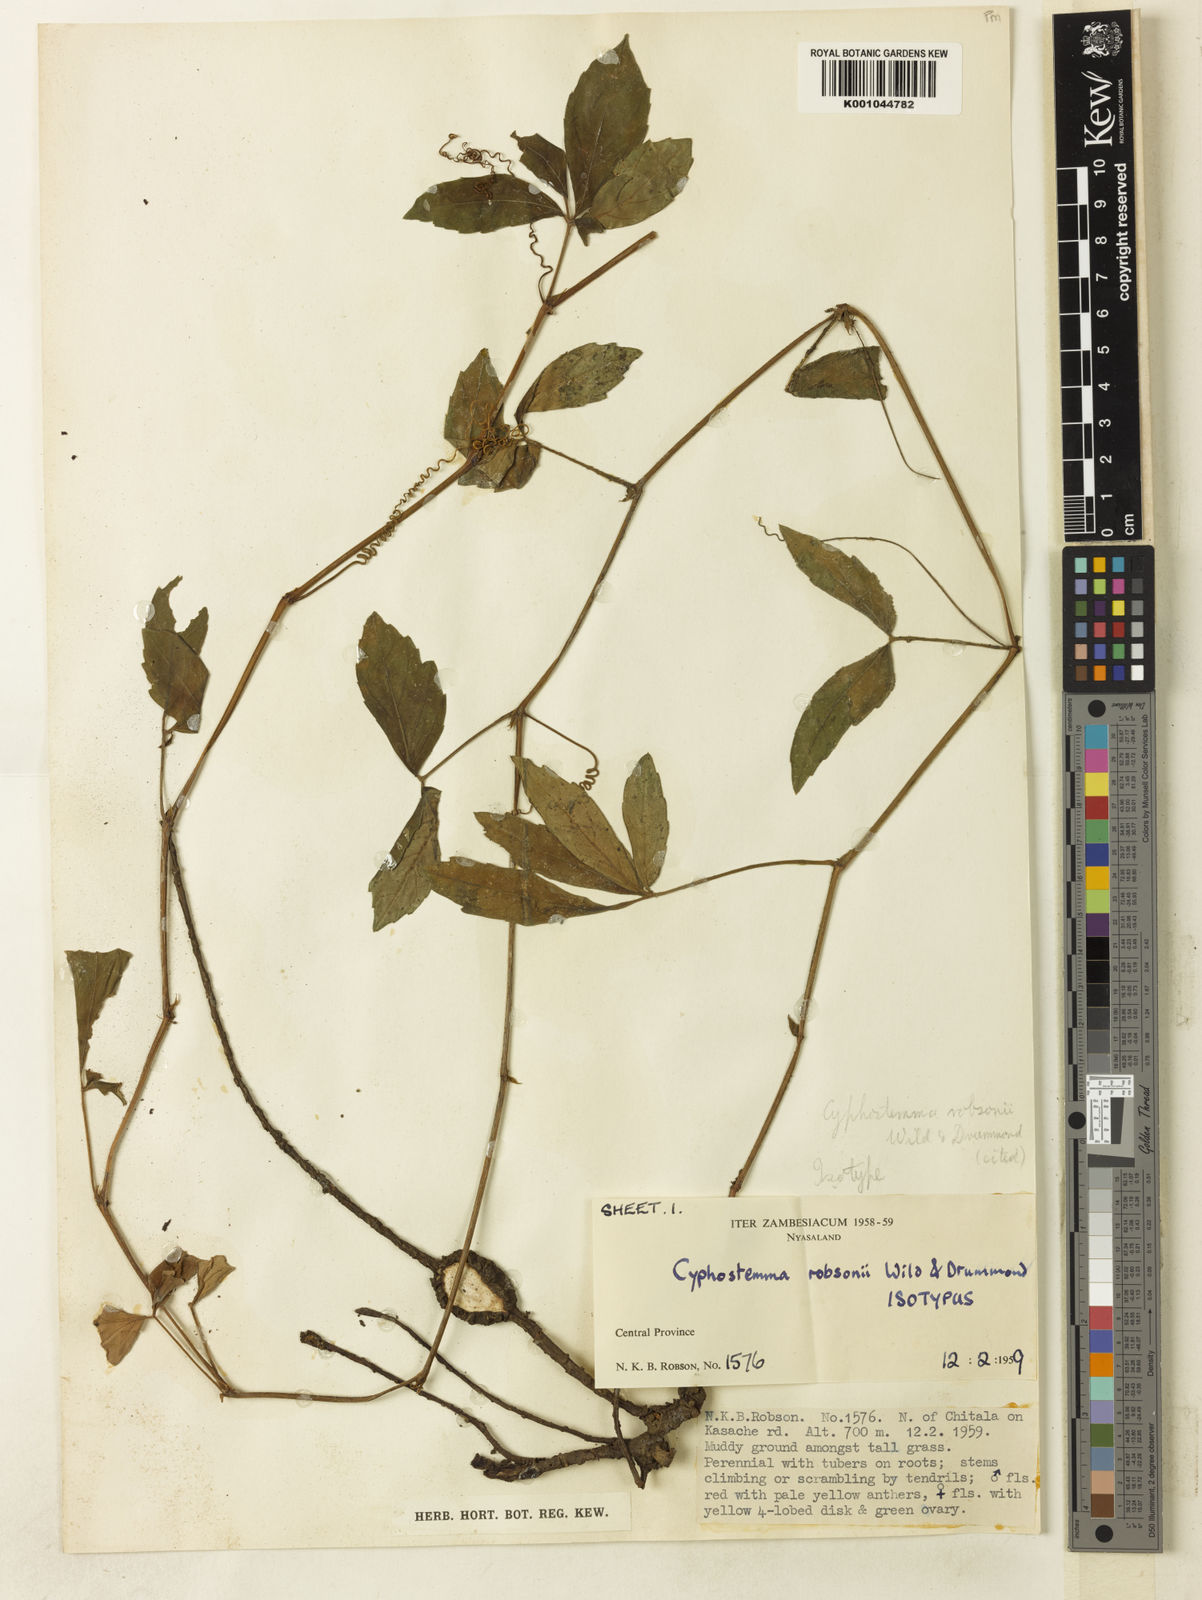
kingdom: Plantae
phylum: Tracheophyta
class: Magnoliopsida
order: Vitales
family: Vitaceae
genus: Cyphostemma
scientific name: Cyphostemma robsonii
